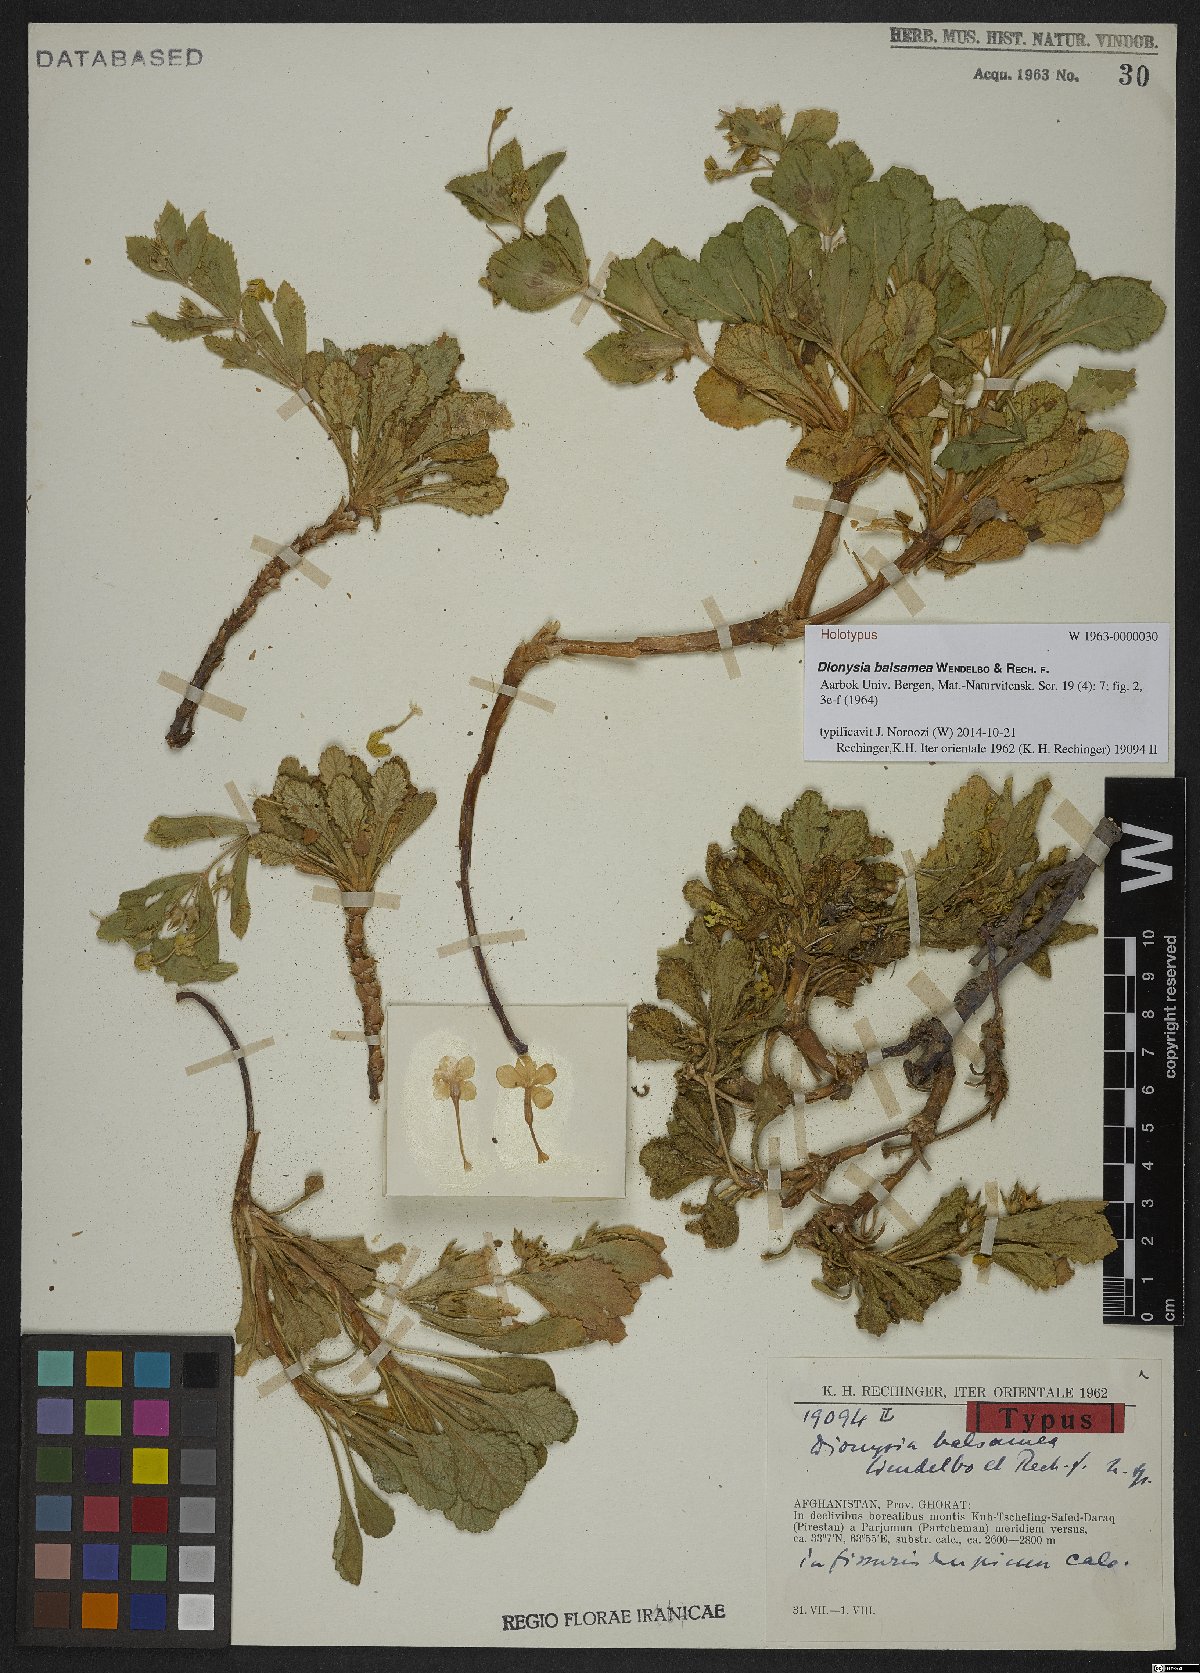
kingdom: Plantae
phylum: Tracheophyta
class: Magnoliopsida
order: Ericales
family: Primulaceae
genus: Dionysia
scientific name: Dionysia balsamea
